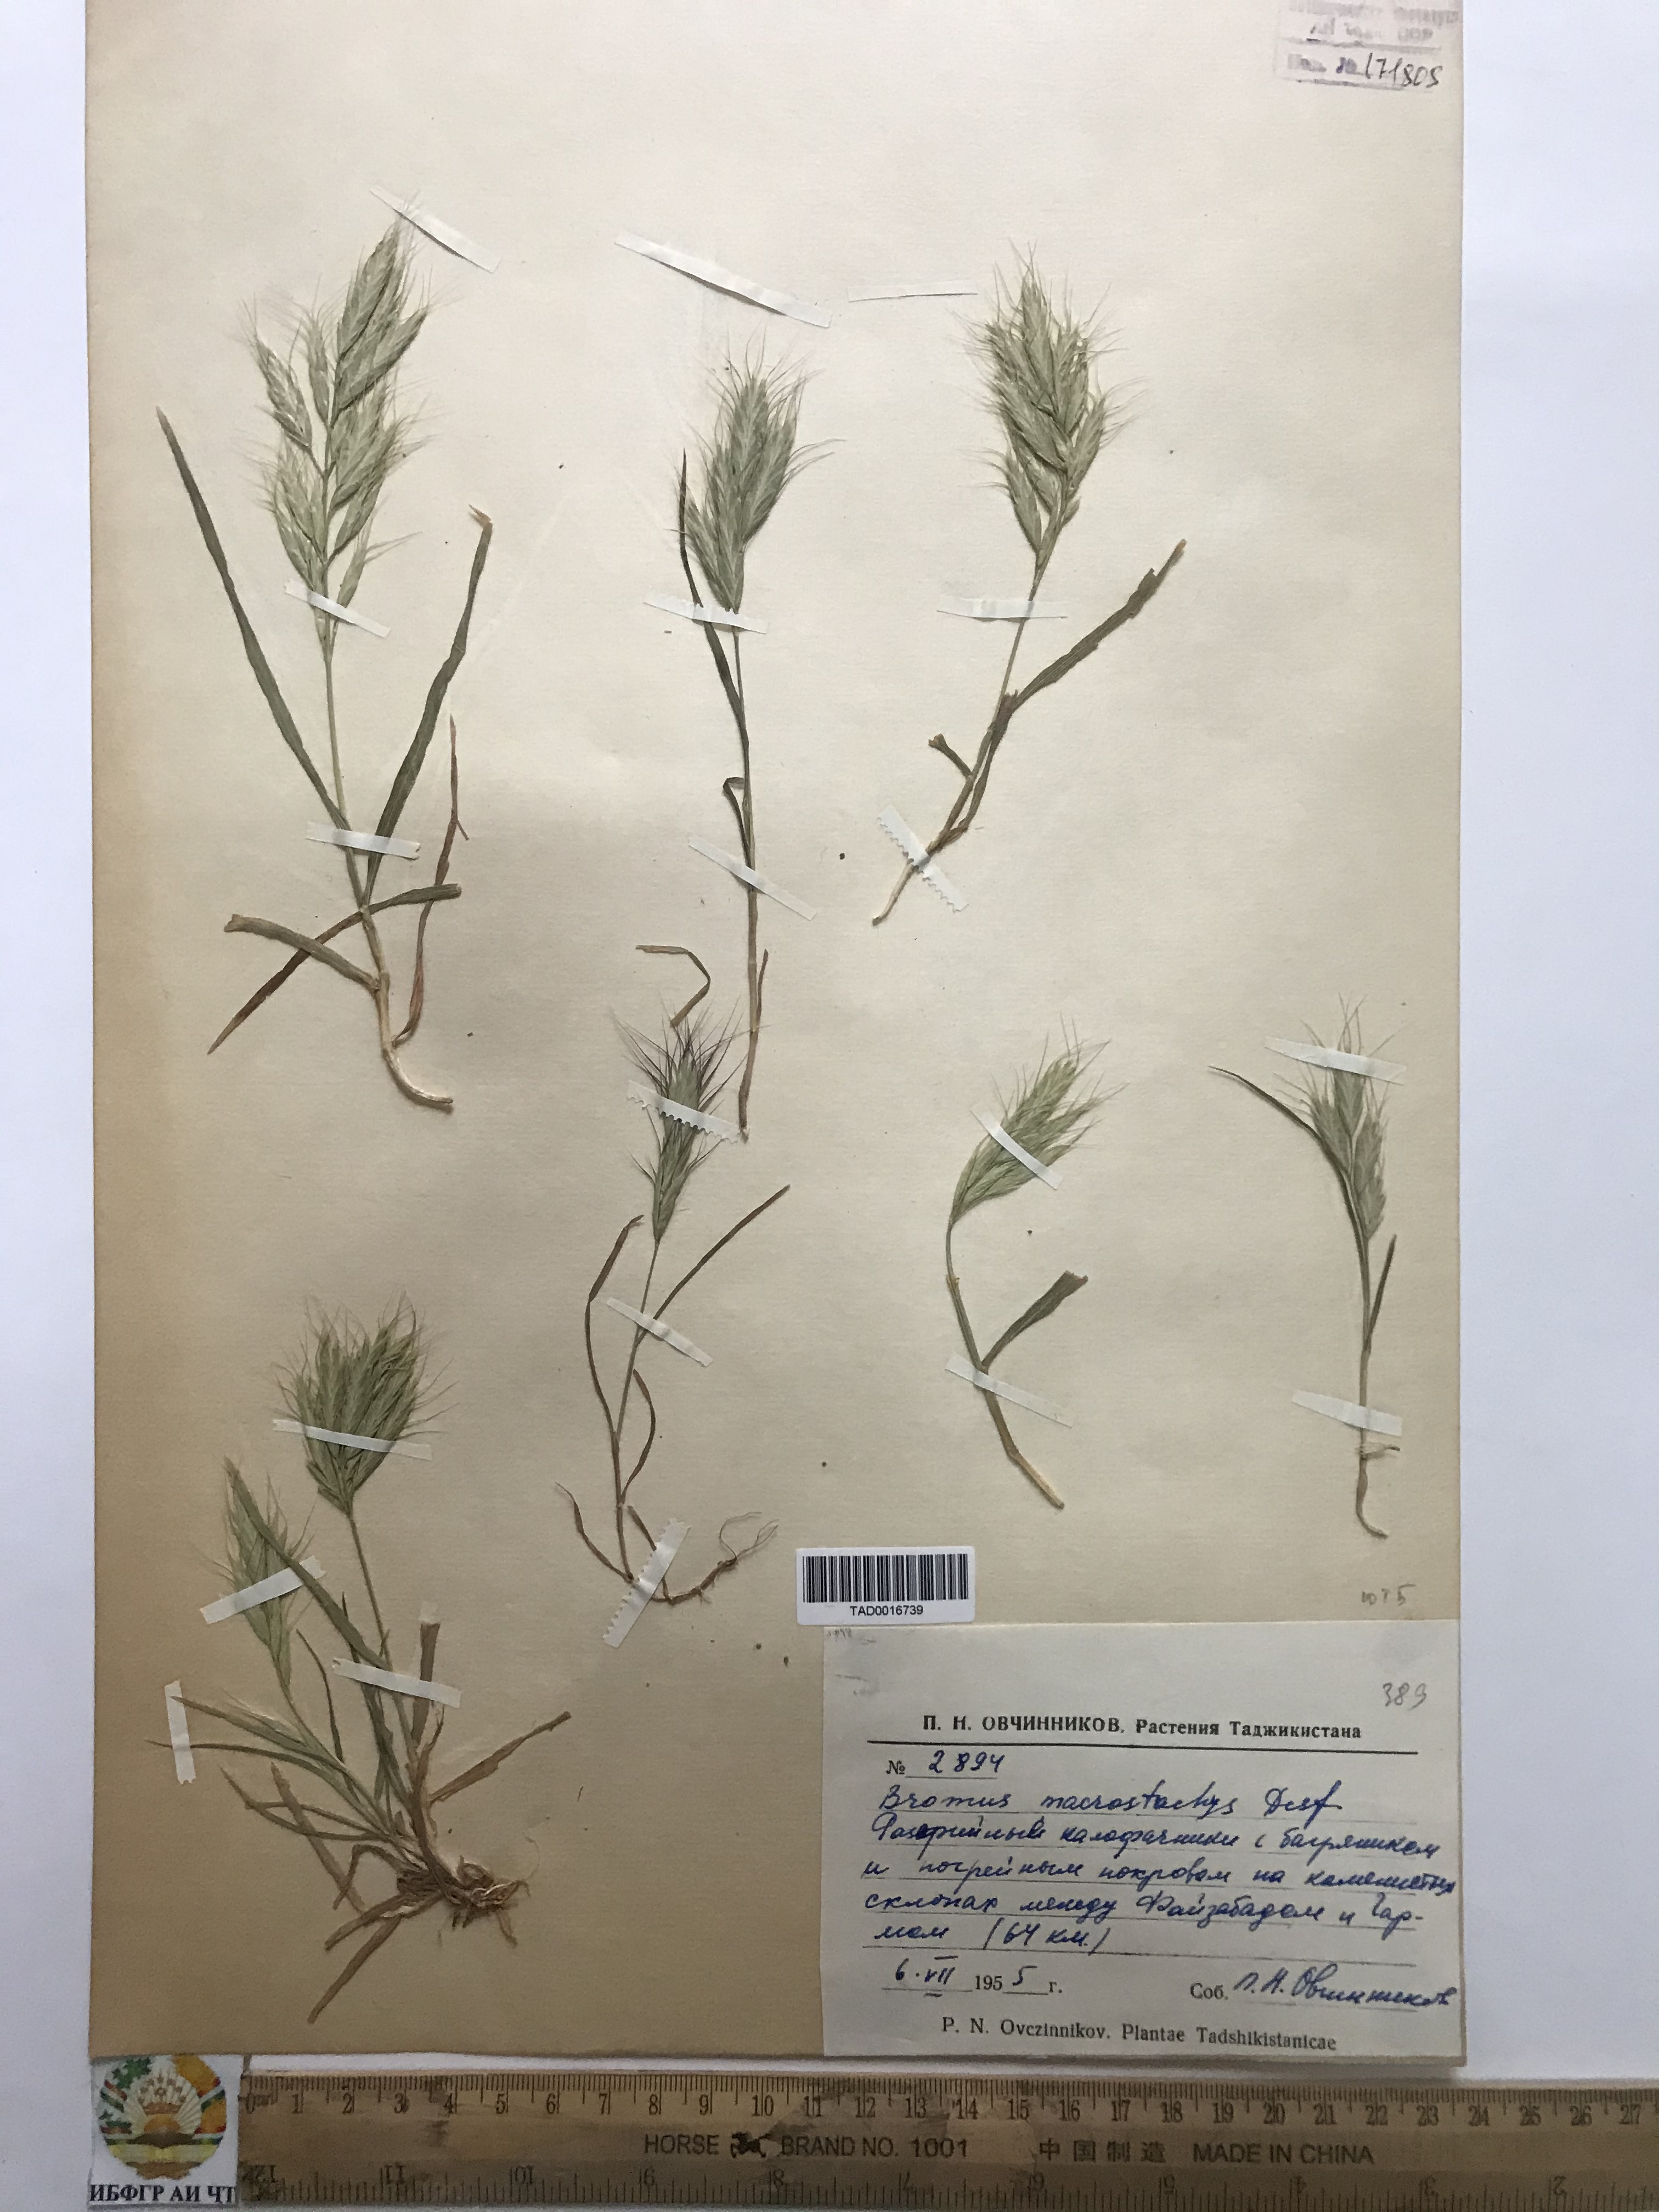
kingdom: Plantae
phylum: Tracheophyta
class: Liliopsida
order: Poales
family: Poaceae
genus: Bromus
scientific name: Bromus lanceolatus
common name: Mediterranean brome
